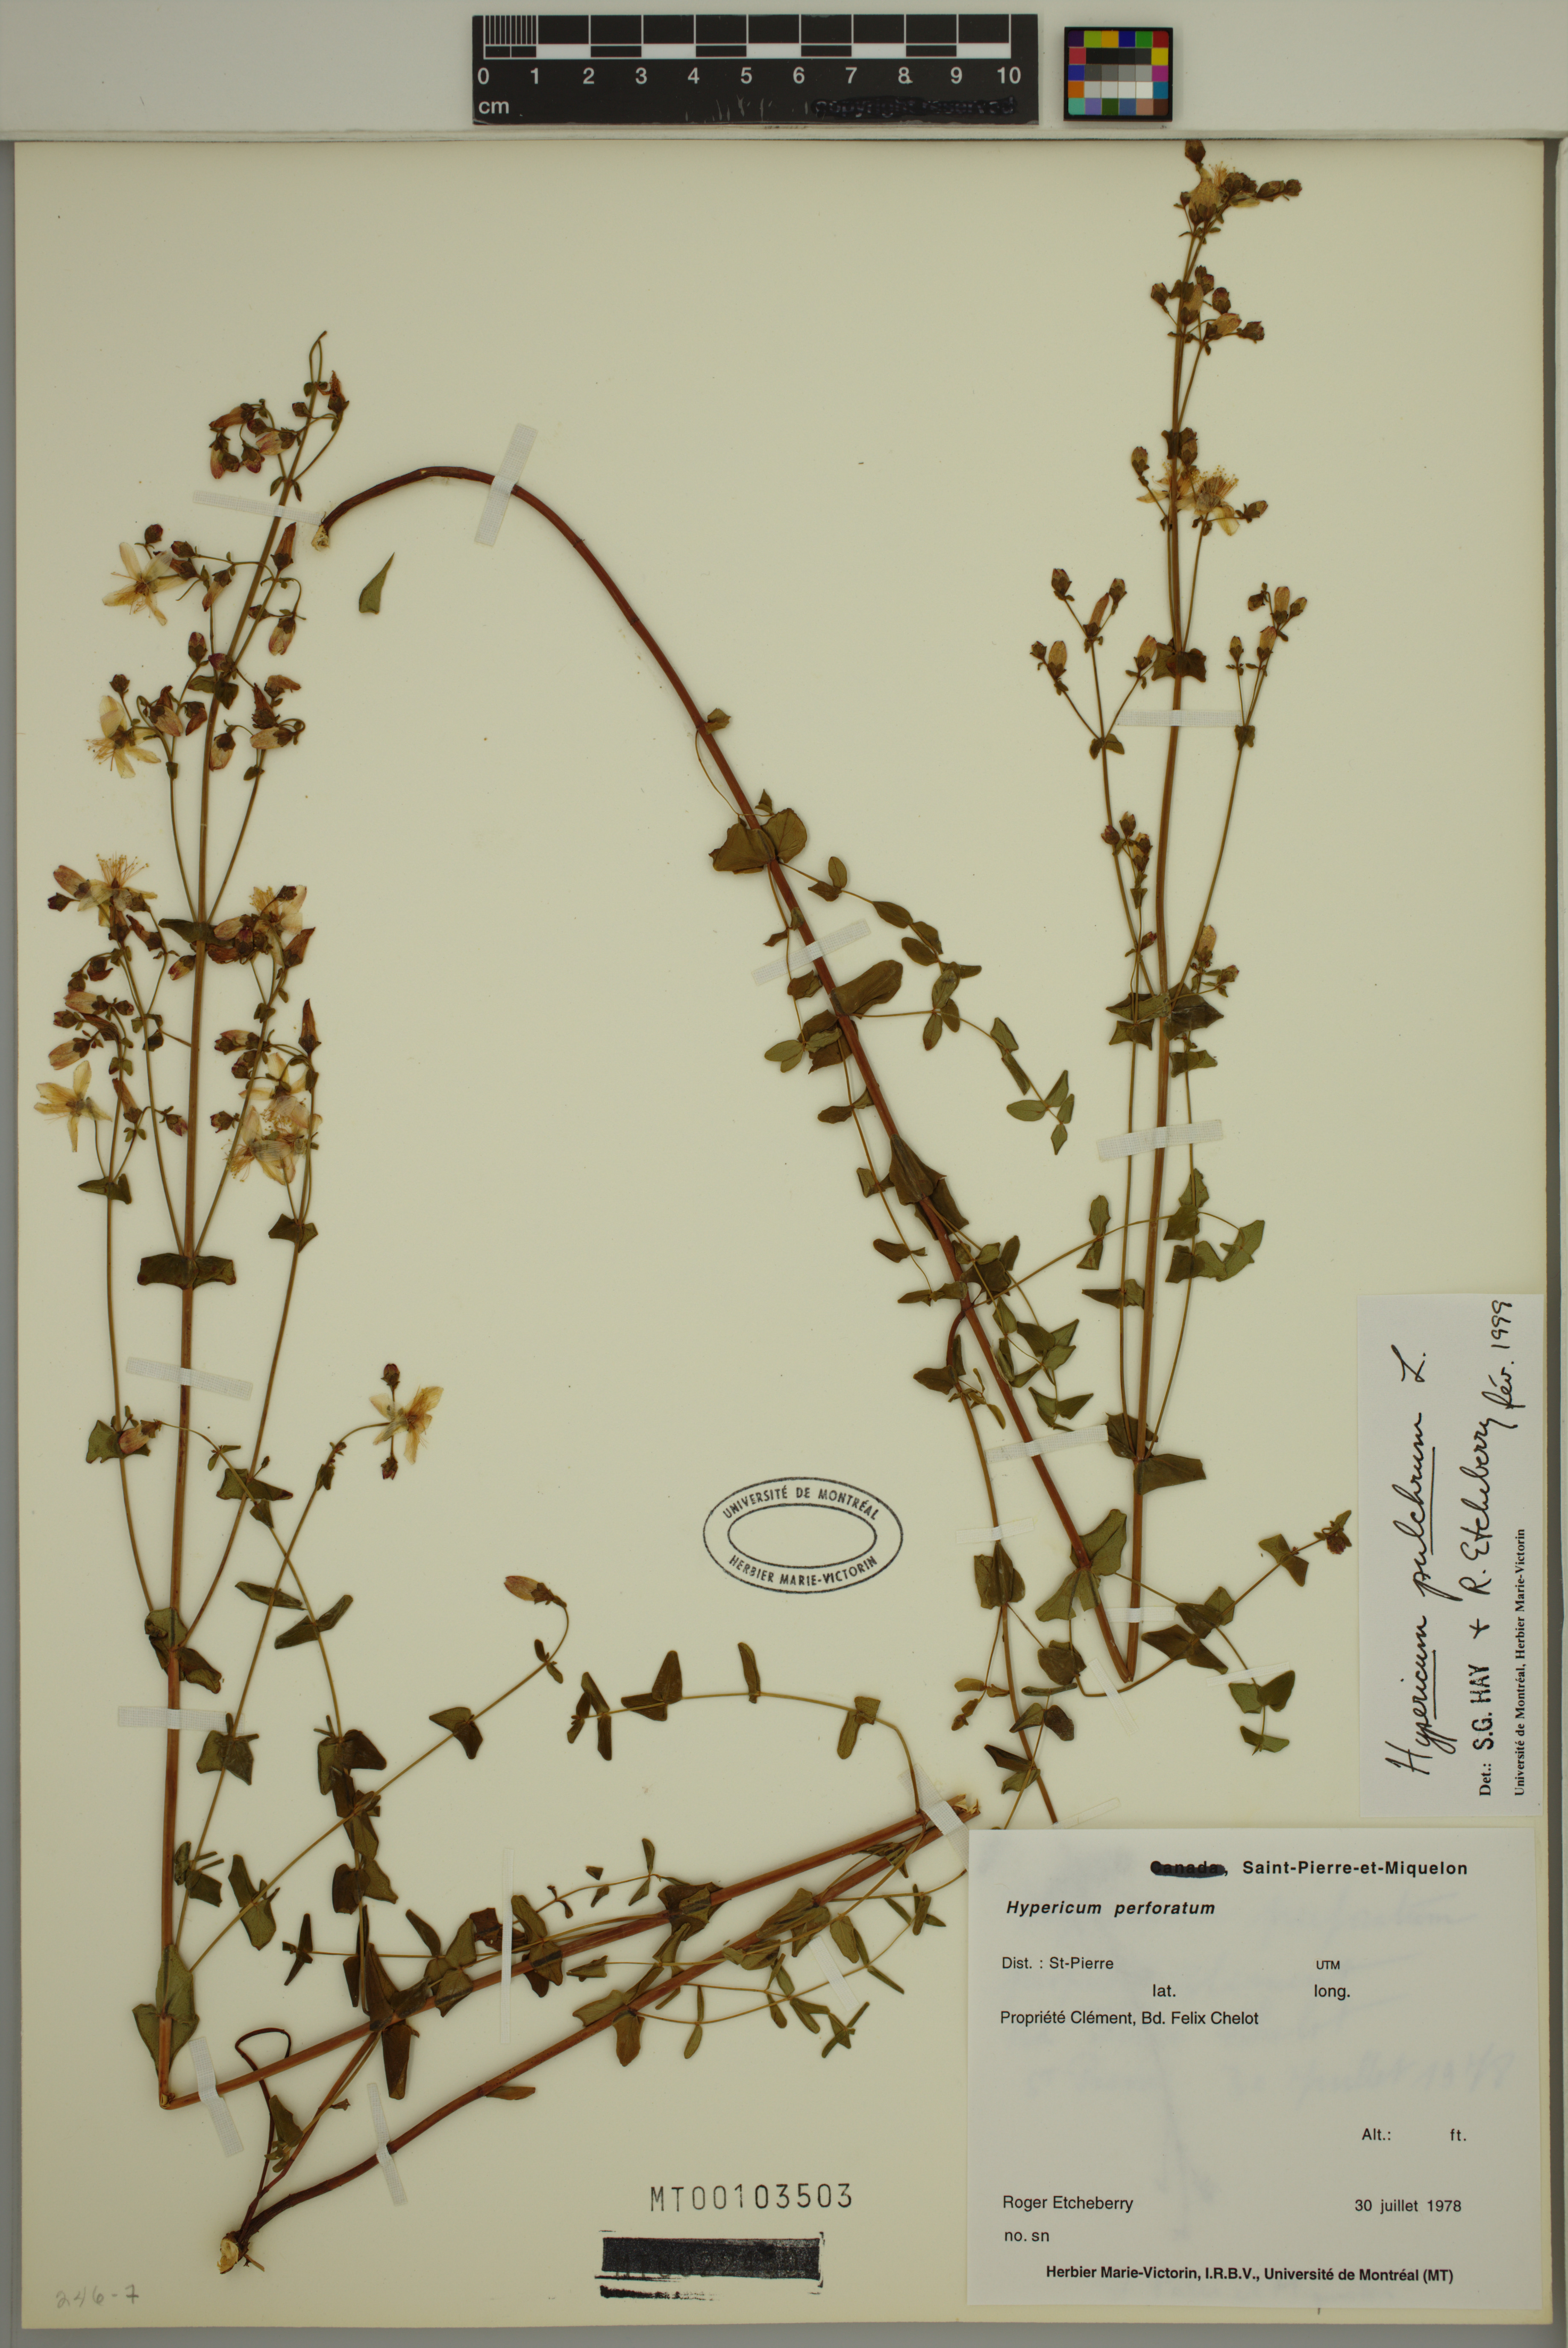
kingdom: Plantae
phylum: Tracheophyta
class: Magnoliopsida
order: Malpighiales
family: Hypericaceae
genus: Hypericum
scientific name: Hypericum pulchrum
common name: Slender st. john's-wort
